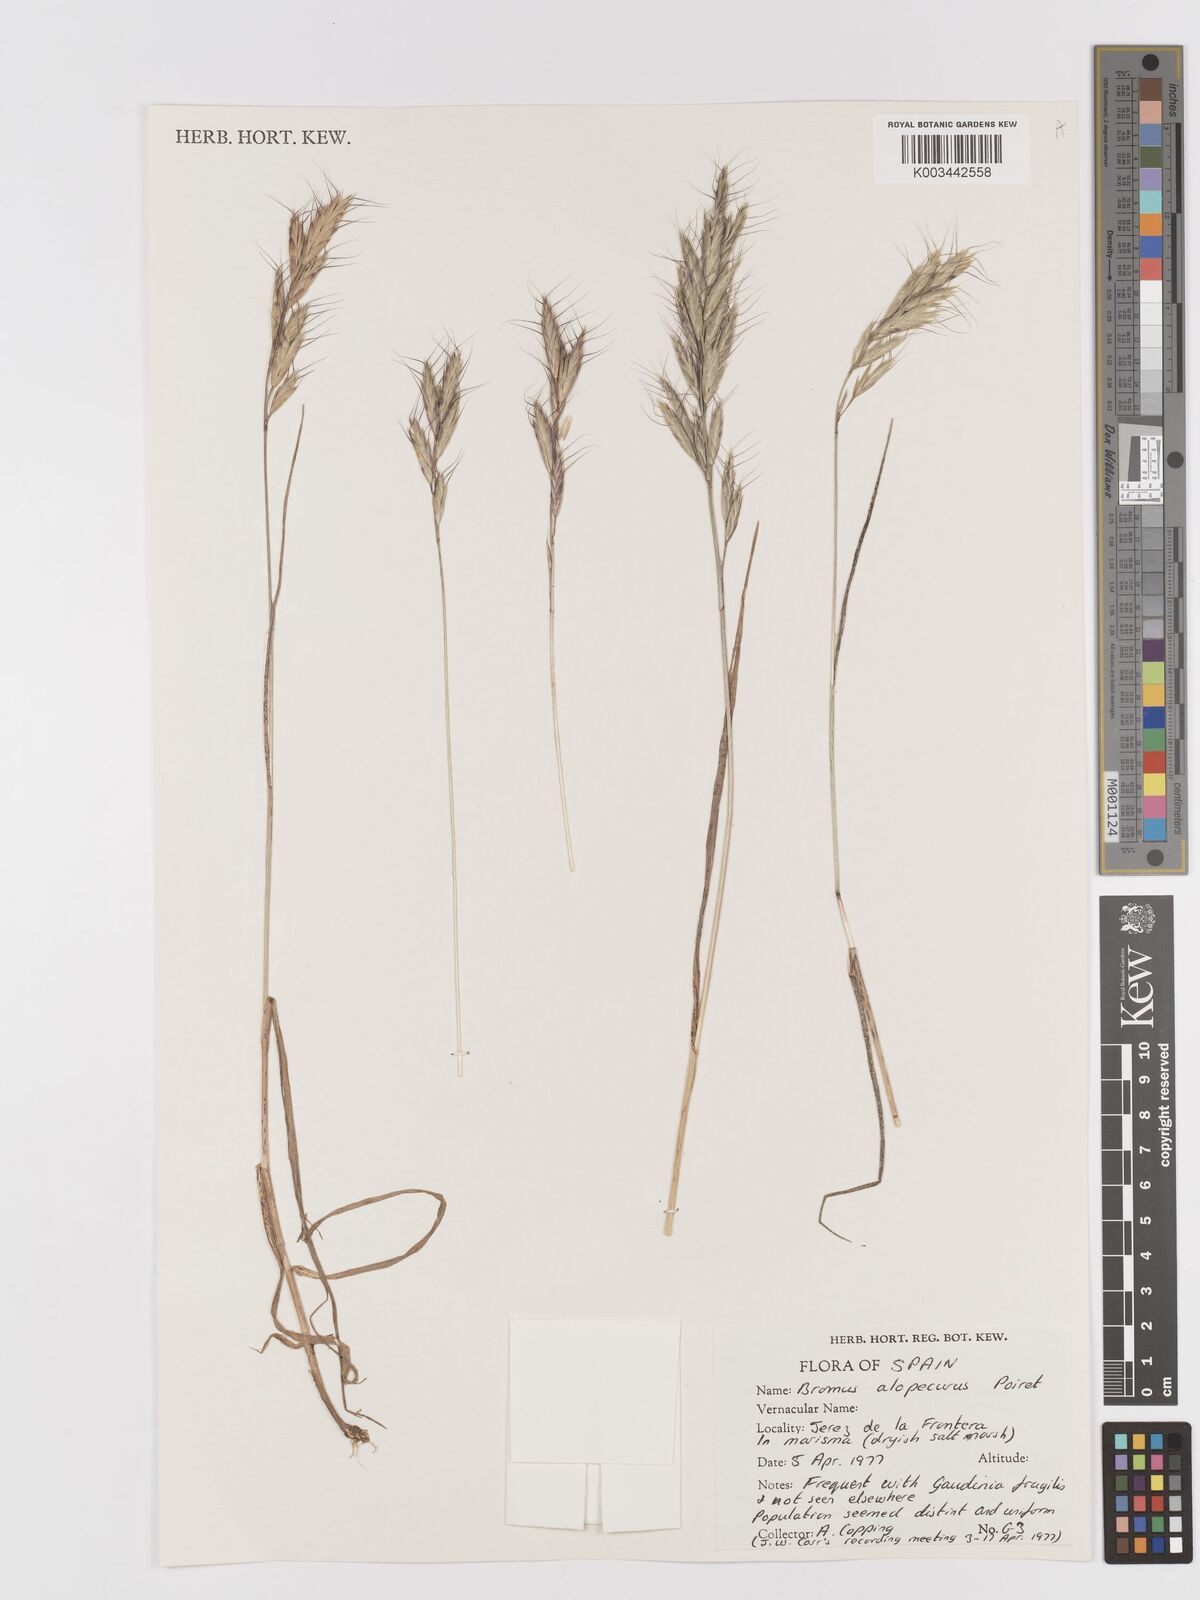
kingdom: Plantae
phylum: Tracheophyta
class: Liliopsida
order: Poales
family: Poaceae
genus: Bromus
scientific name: Bromus alopecuros
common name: Weedy brome
